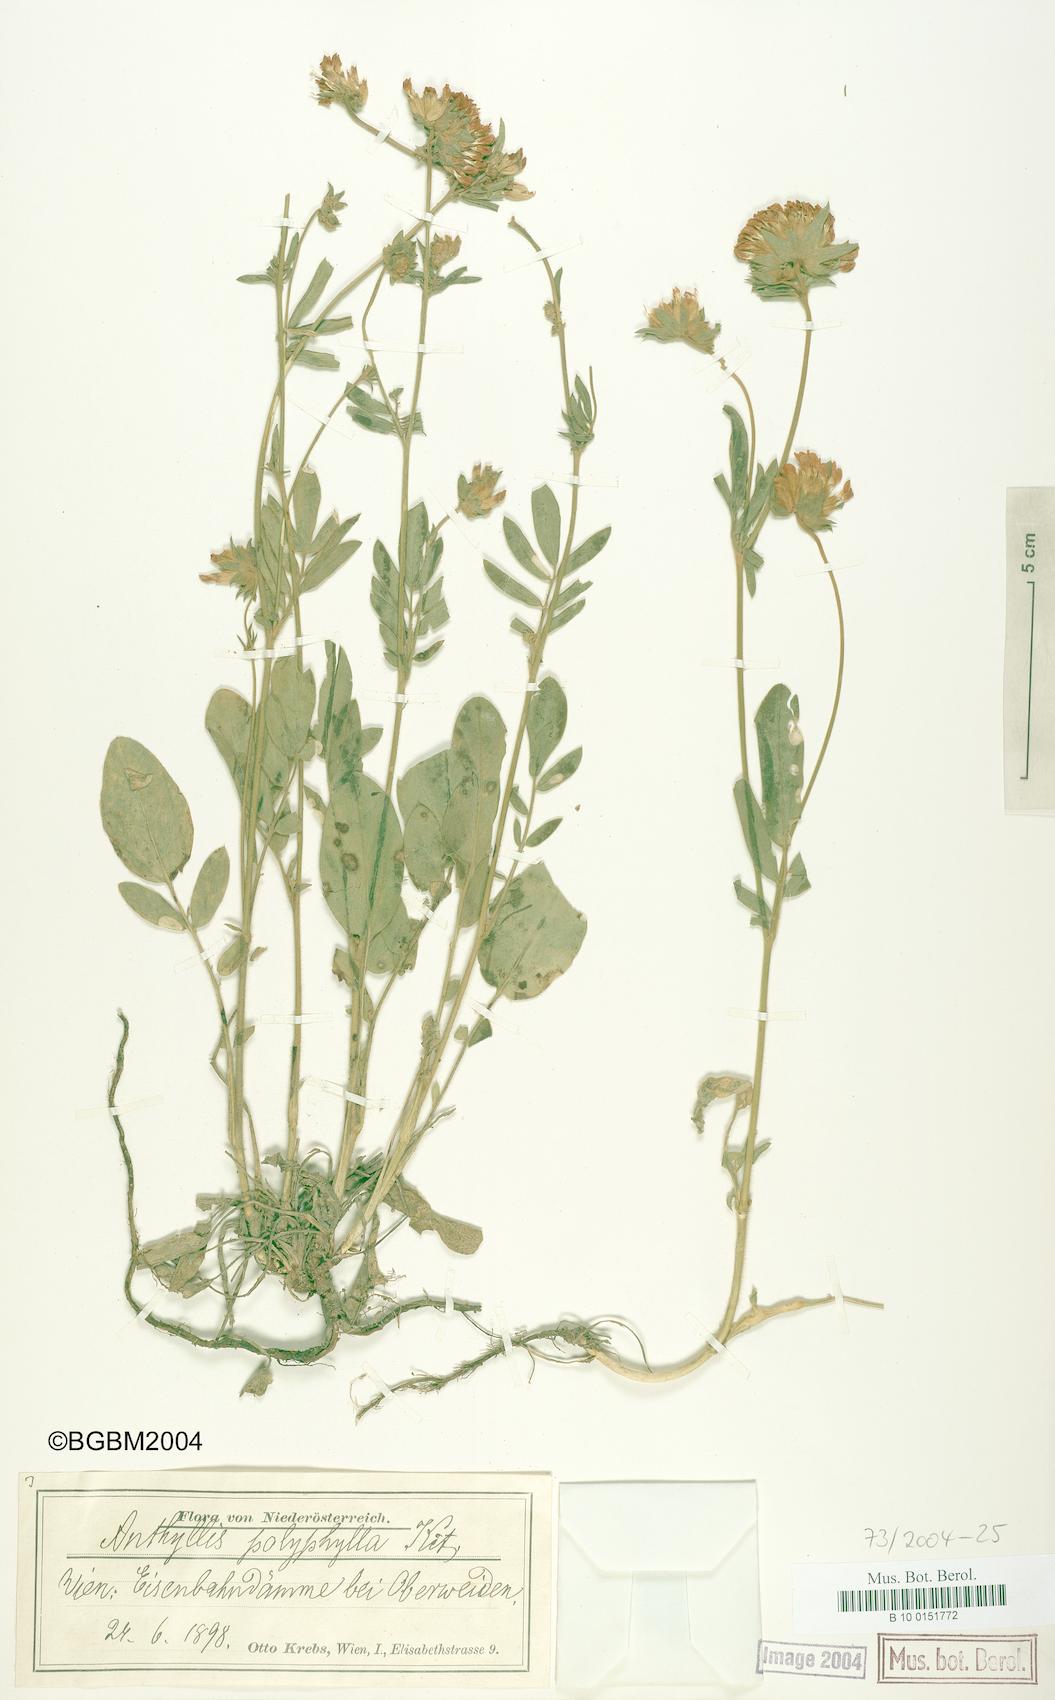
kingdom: Plantae
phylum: Tracheophyta
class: Magnoliopsida
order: Fabales
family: Fabaceae
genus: Anthyllis
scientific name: Anthyllis vulneraria
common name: Kidney vetch
